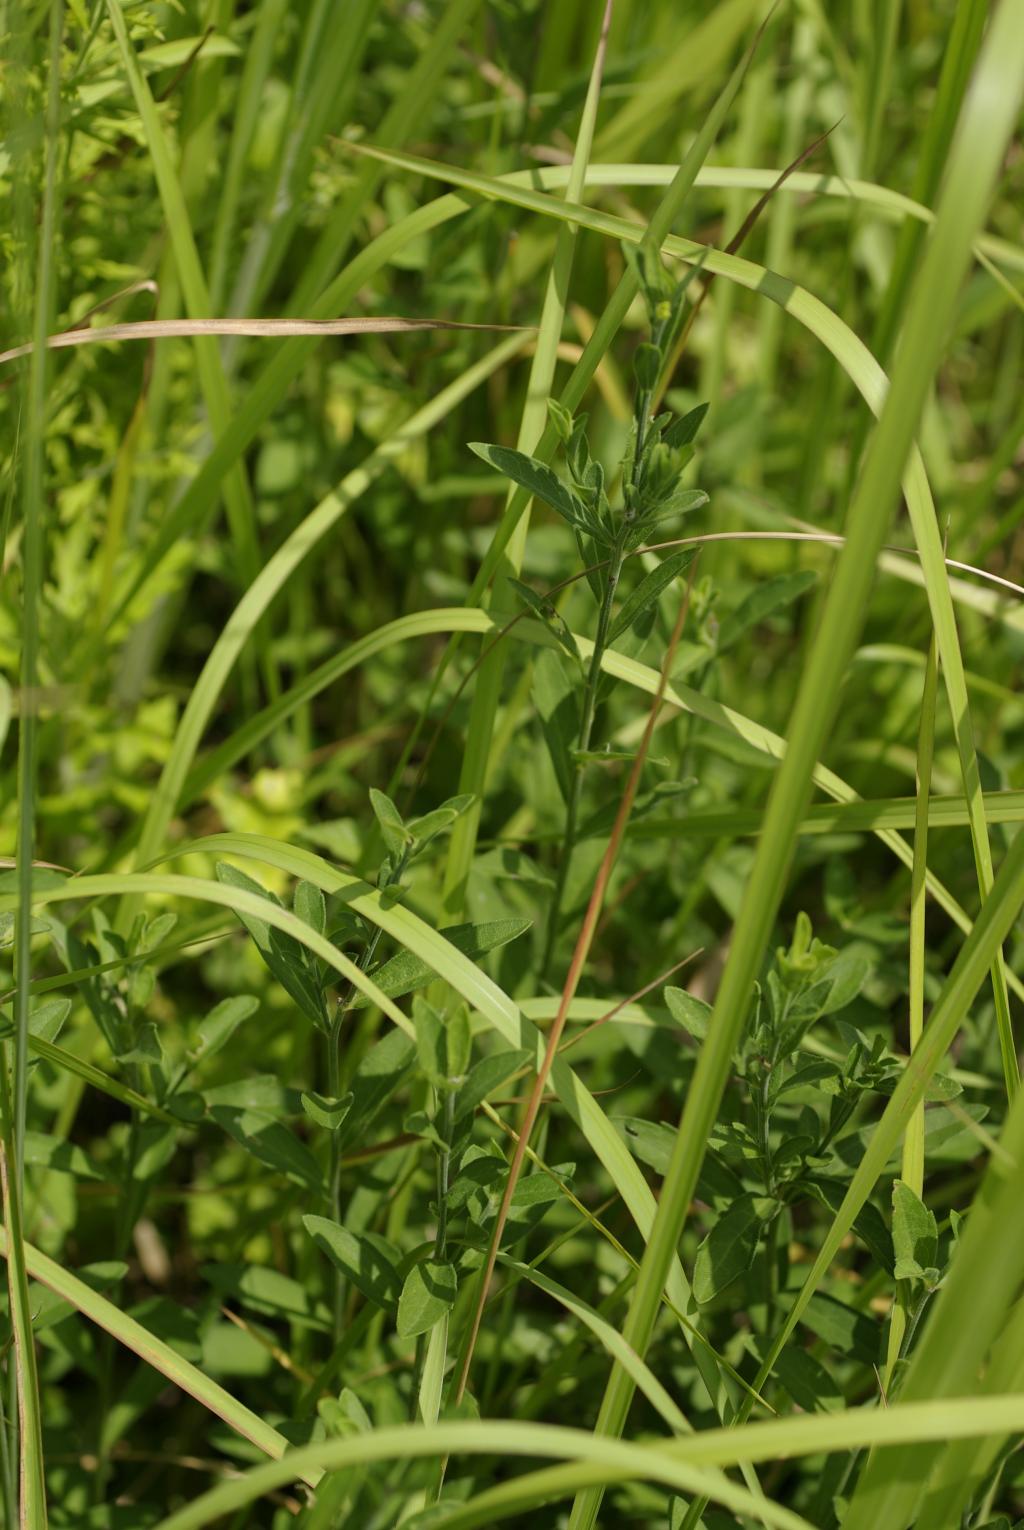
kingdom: Plantae
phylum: Tracheophyta
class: Magnoliopsida
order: Asterales
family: Asteraceae
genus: Aster
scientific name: Aster shimadae
